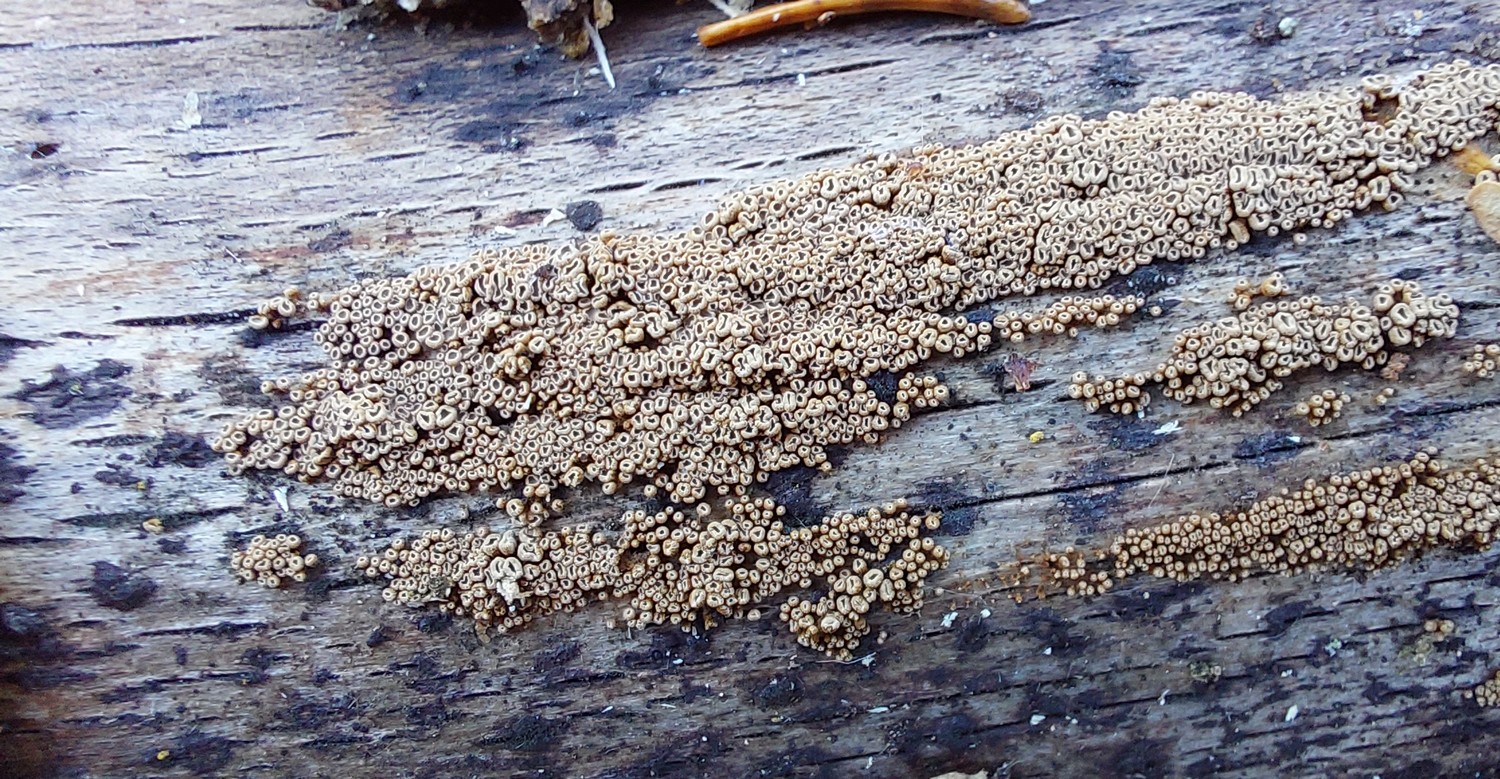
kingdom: Fungi
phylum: Basidiomycota
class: Agaricomycetes
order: Agaricales
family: Niaceae
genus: Merismodes
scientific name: Merismodes anomala
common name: almindelig læderskål
